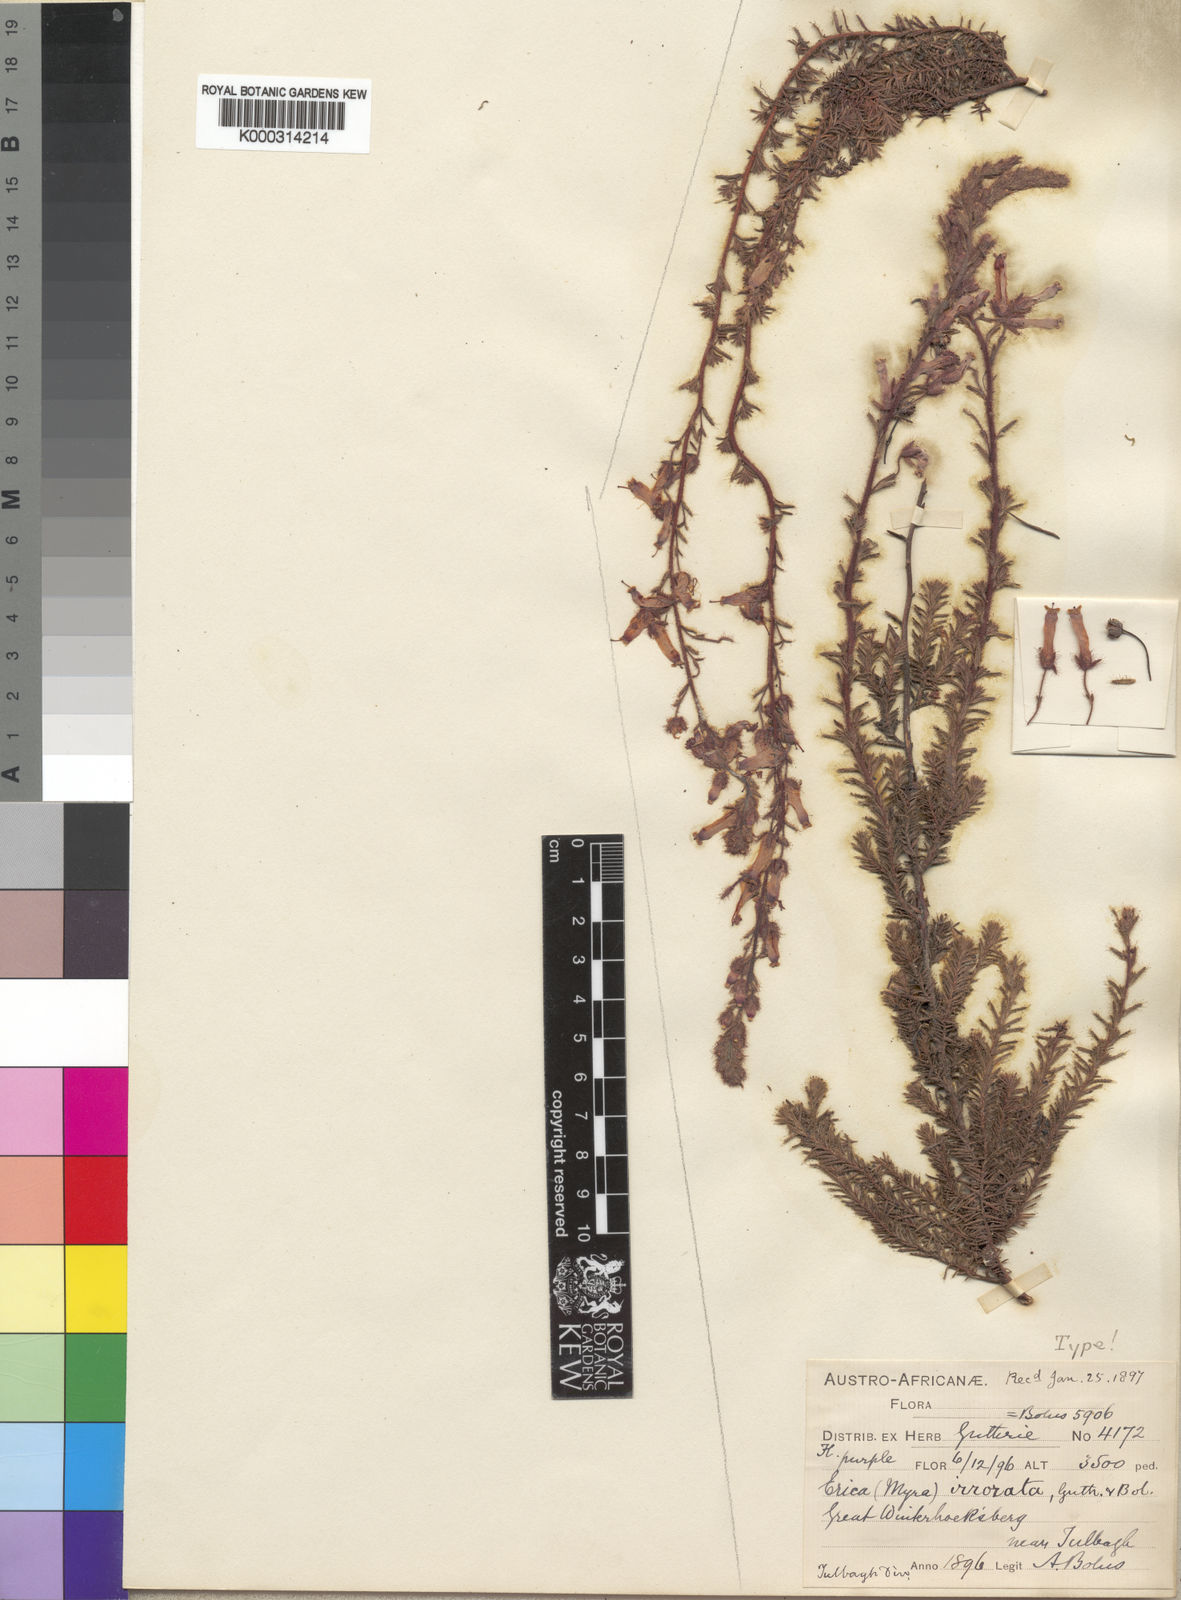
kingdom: Plantae
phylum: Tracheophyta
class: Magnoliopsida
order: Ericales
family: Ericaceae
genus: Erica
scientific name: Erica irrorata
